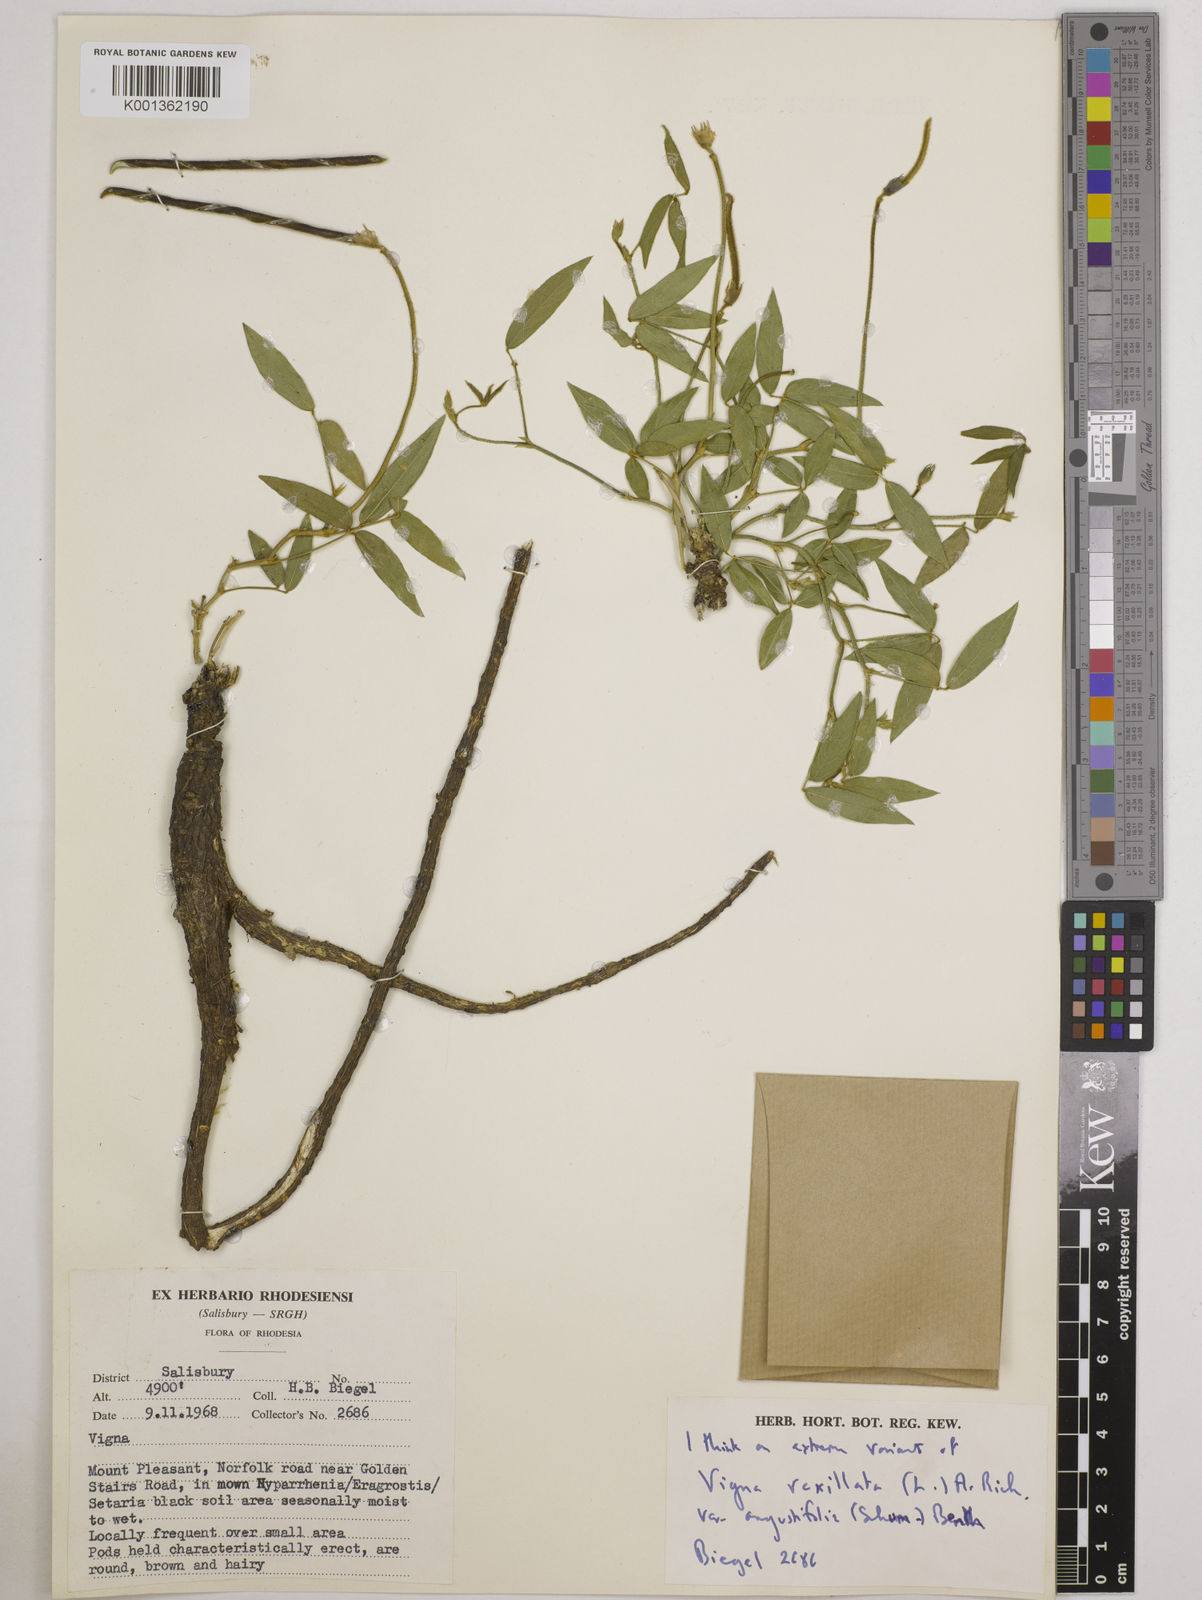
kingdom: Plantae
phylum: Tracheophyta
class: Magnoliopsida
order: Fabales
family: Fabaceae
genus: Vigna
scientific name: Vigna vexillata
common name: Zombi pea
